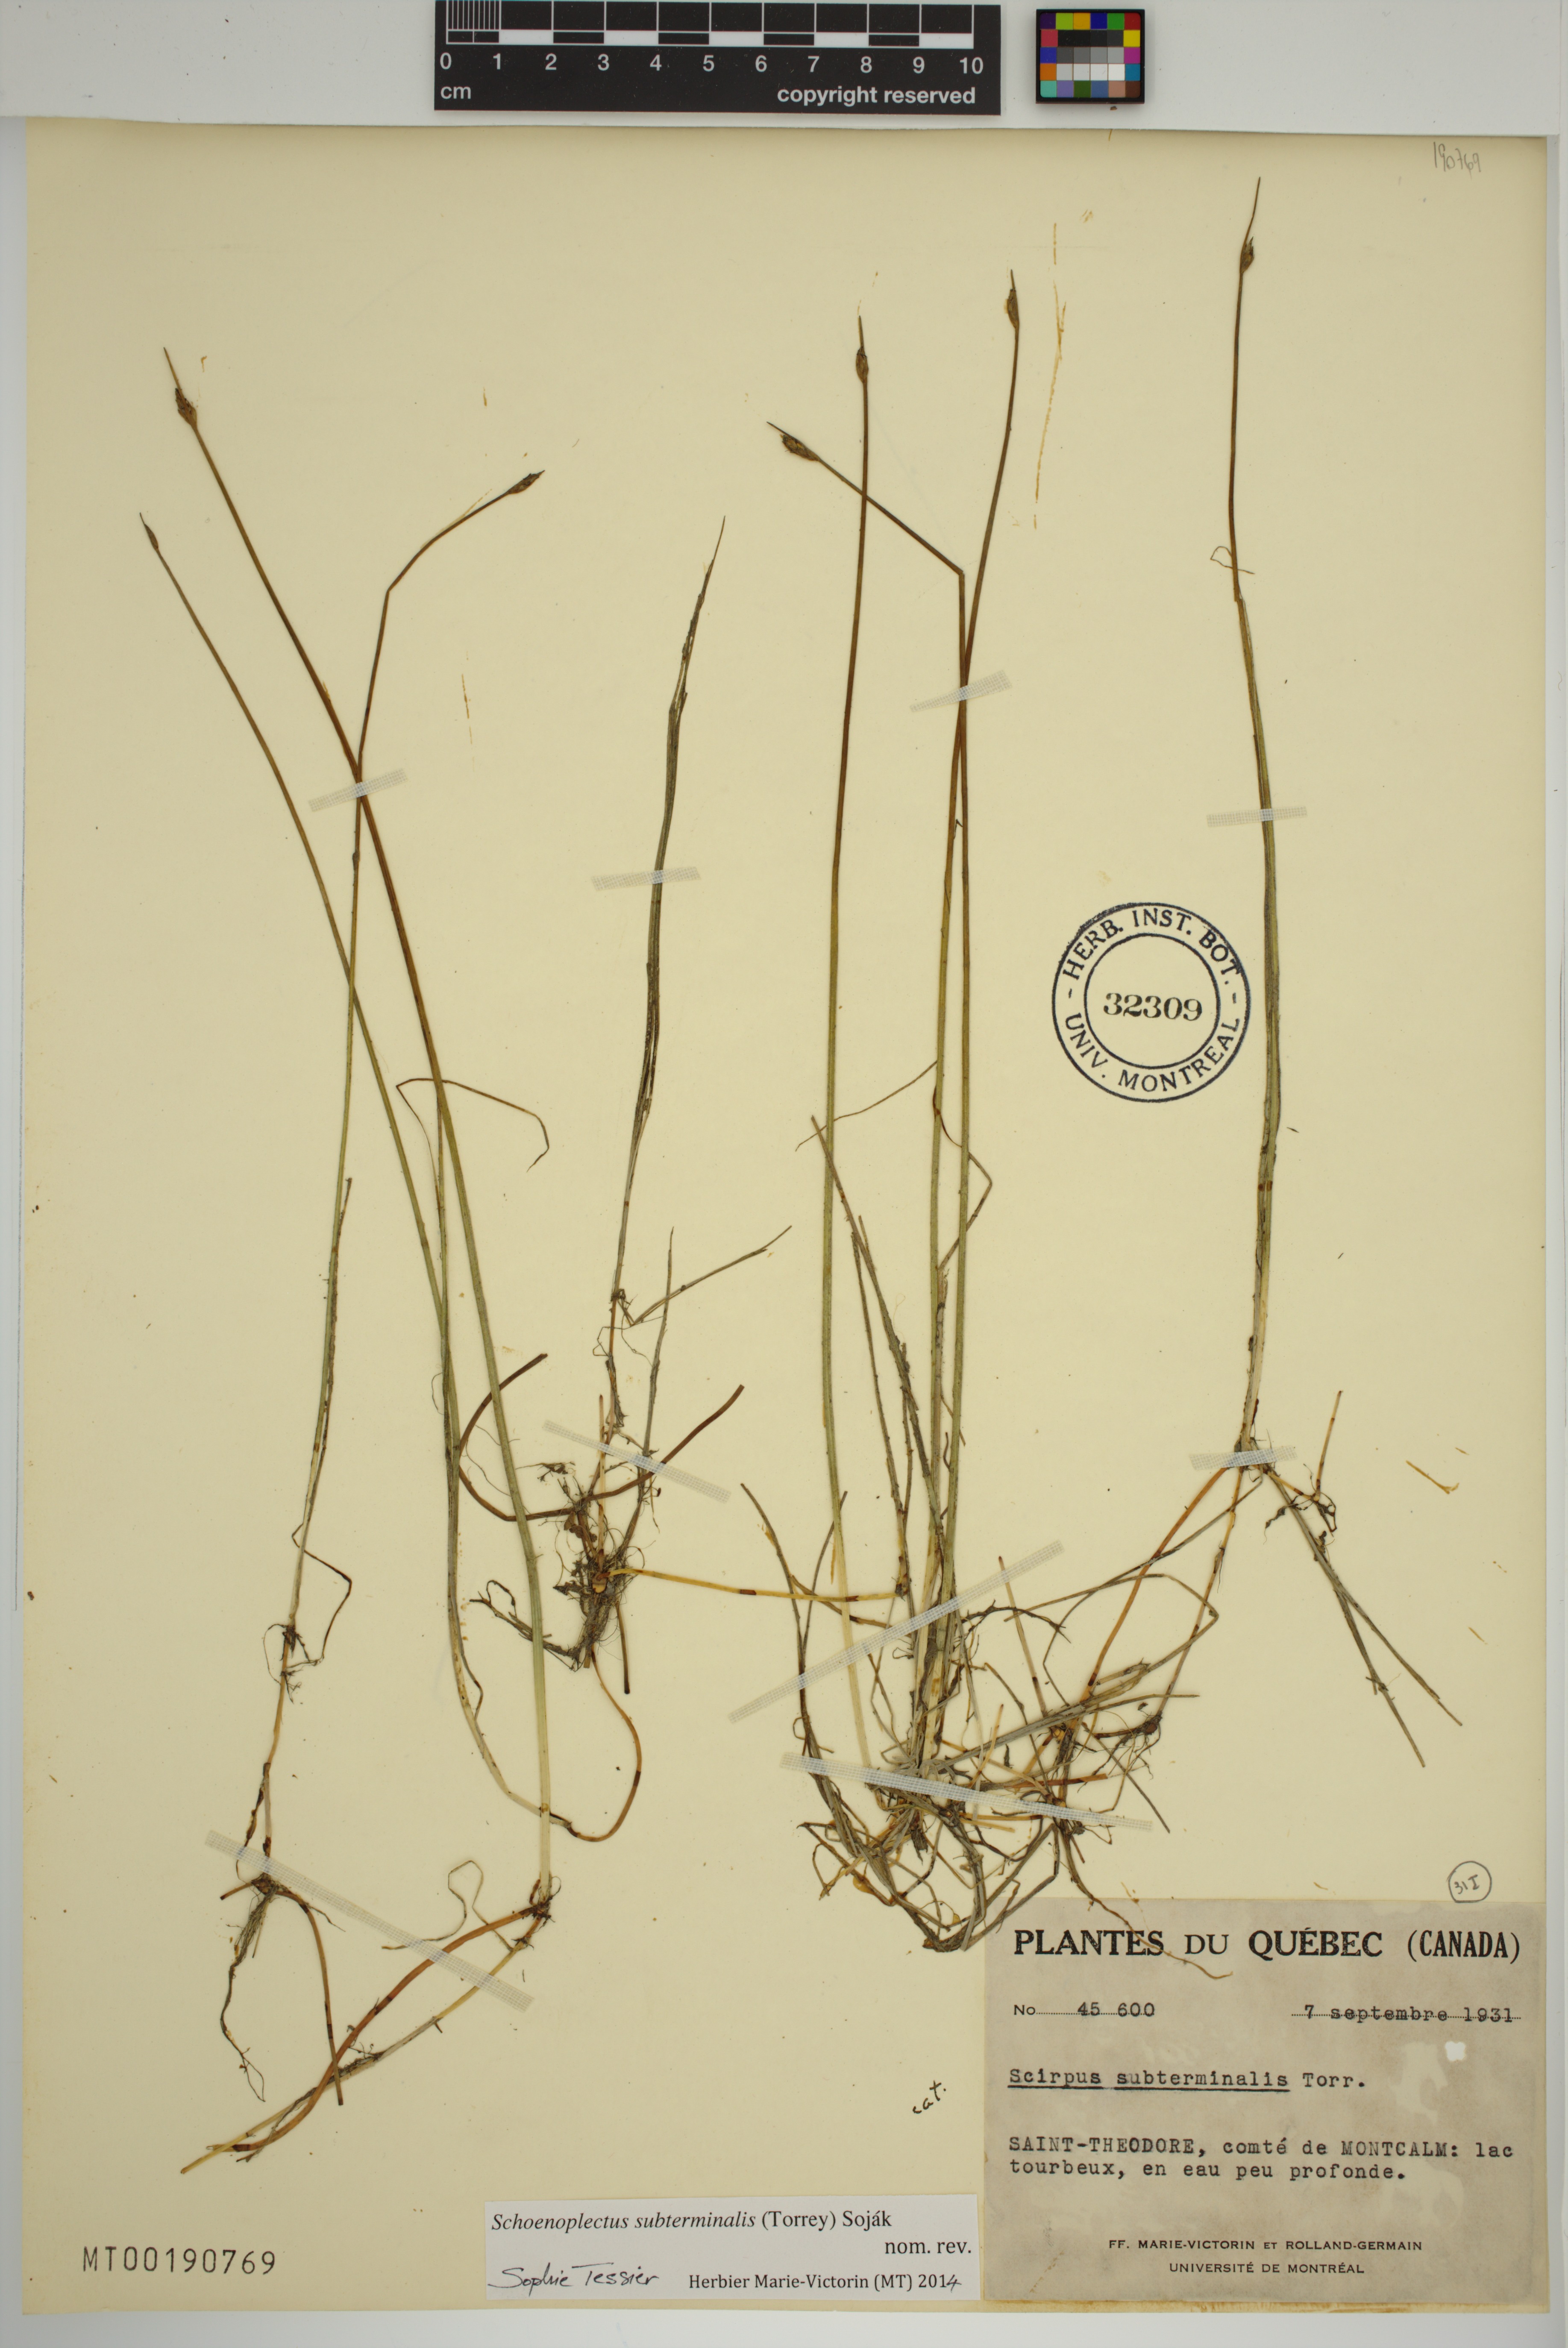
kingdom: Plantae
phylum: Tracheophyta
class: Liliopsida
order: Poales
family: Cyperaceae
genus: Schoenoplectus
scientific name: Schoenoplectus subterminalis
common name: Swaying bulrush
